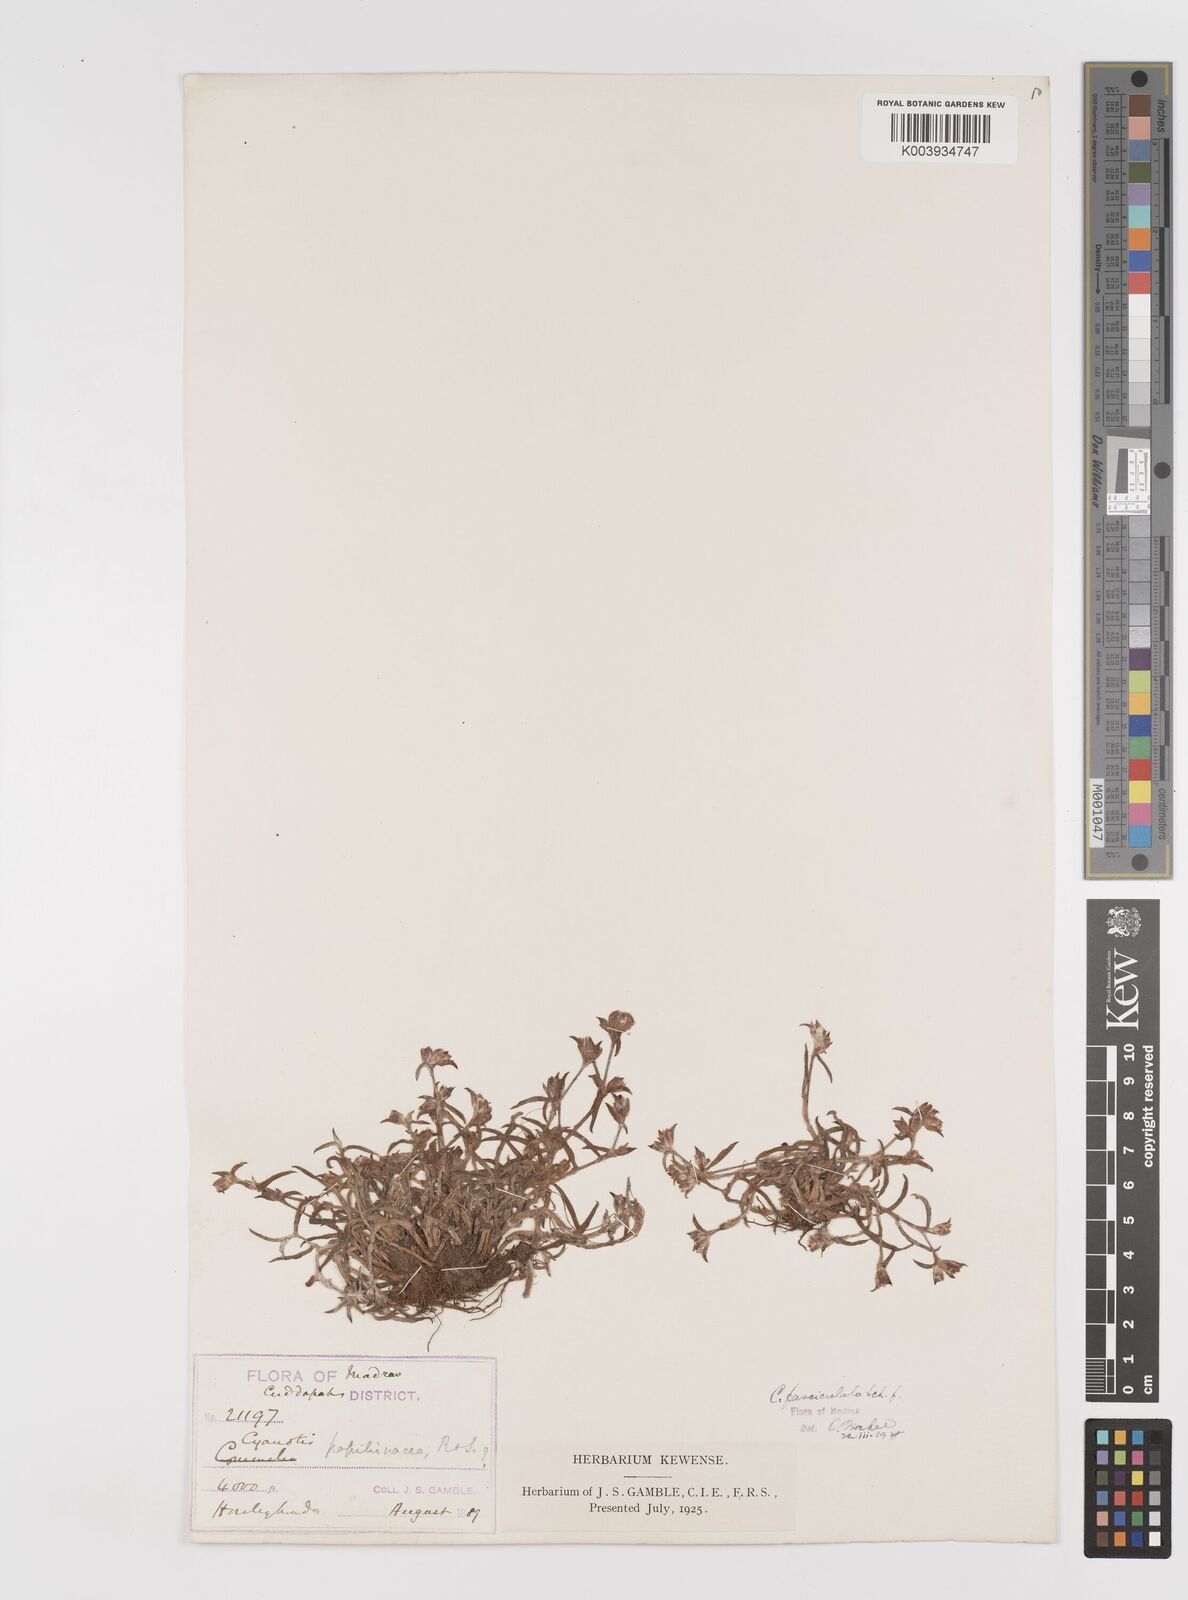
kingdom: Plantae
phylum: Tracheophyta
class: Liliopsida
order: Commelinales
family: Commelinaceae
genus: Cyanotis
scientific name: Cyanotis fasciculata
